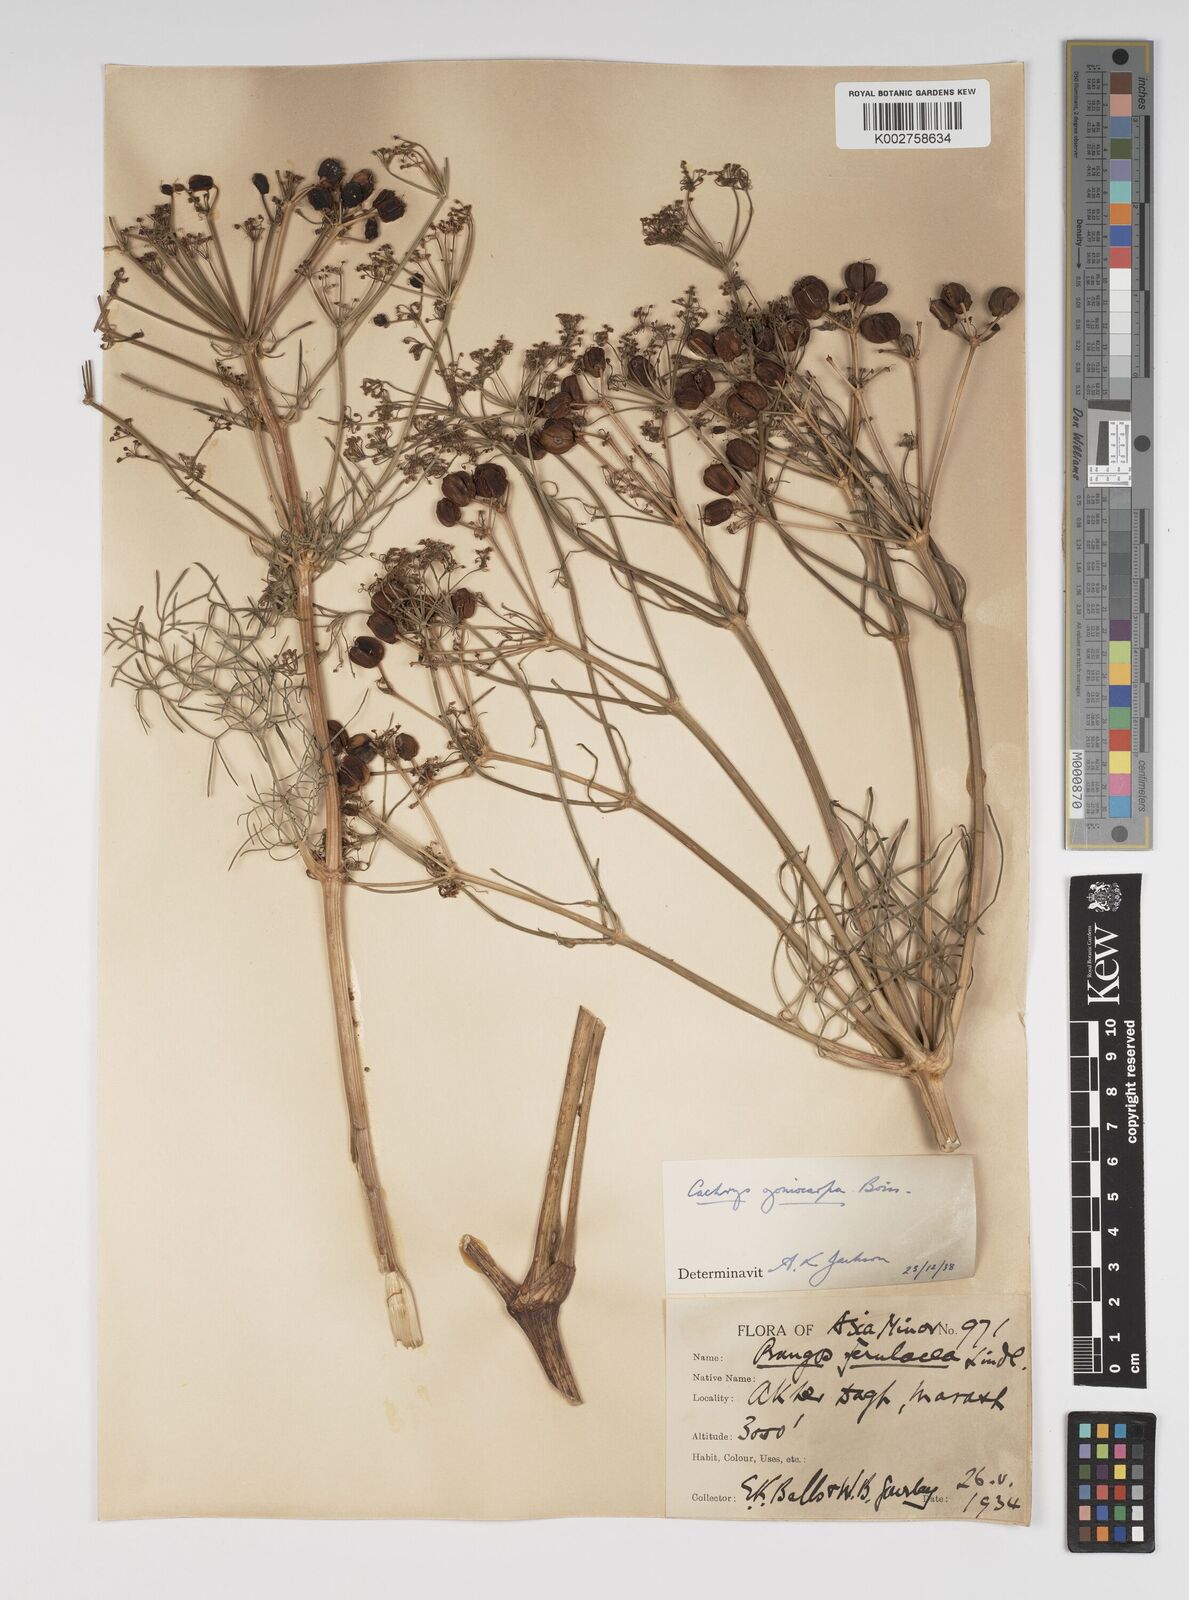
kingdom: Plantae
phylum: Tracheophyta
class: Magnoliopsida
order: Apiales
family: Apiaceae
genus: Prangos
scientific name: Prangos ferulacea
